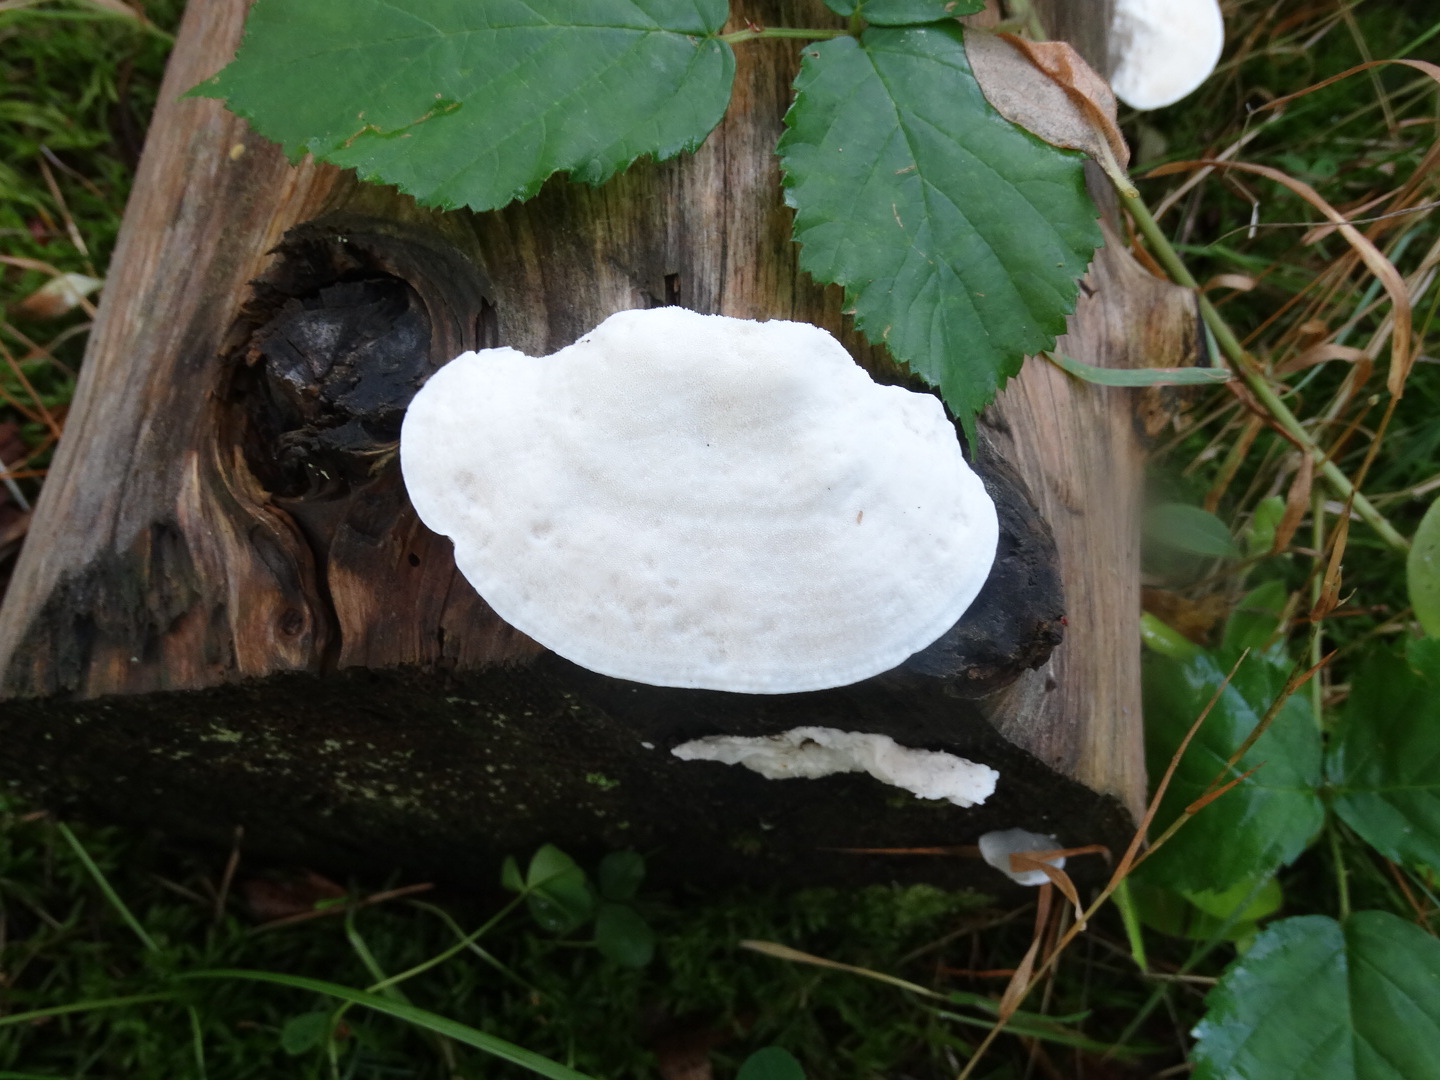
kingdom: Fungi
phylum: Basidiomycota
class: Agaricomycetes
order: Polyporales
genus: Amaropostia
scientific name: Amaropostia stiptica
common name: bitter kødporesvamp
